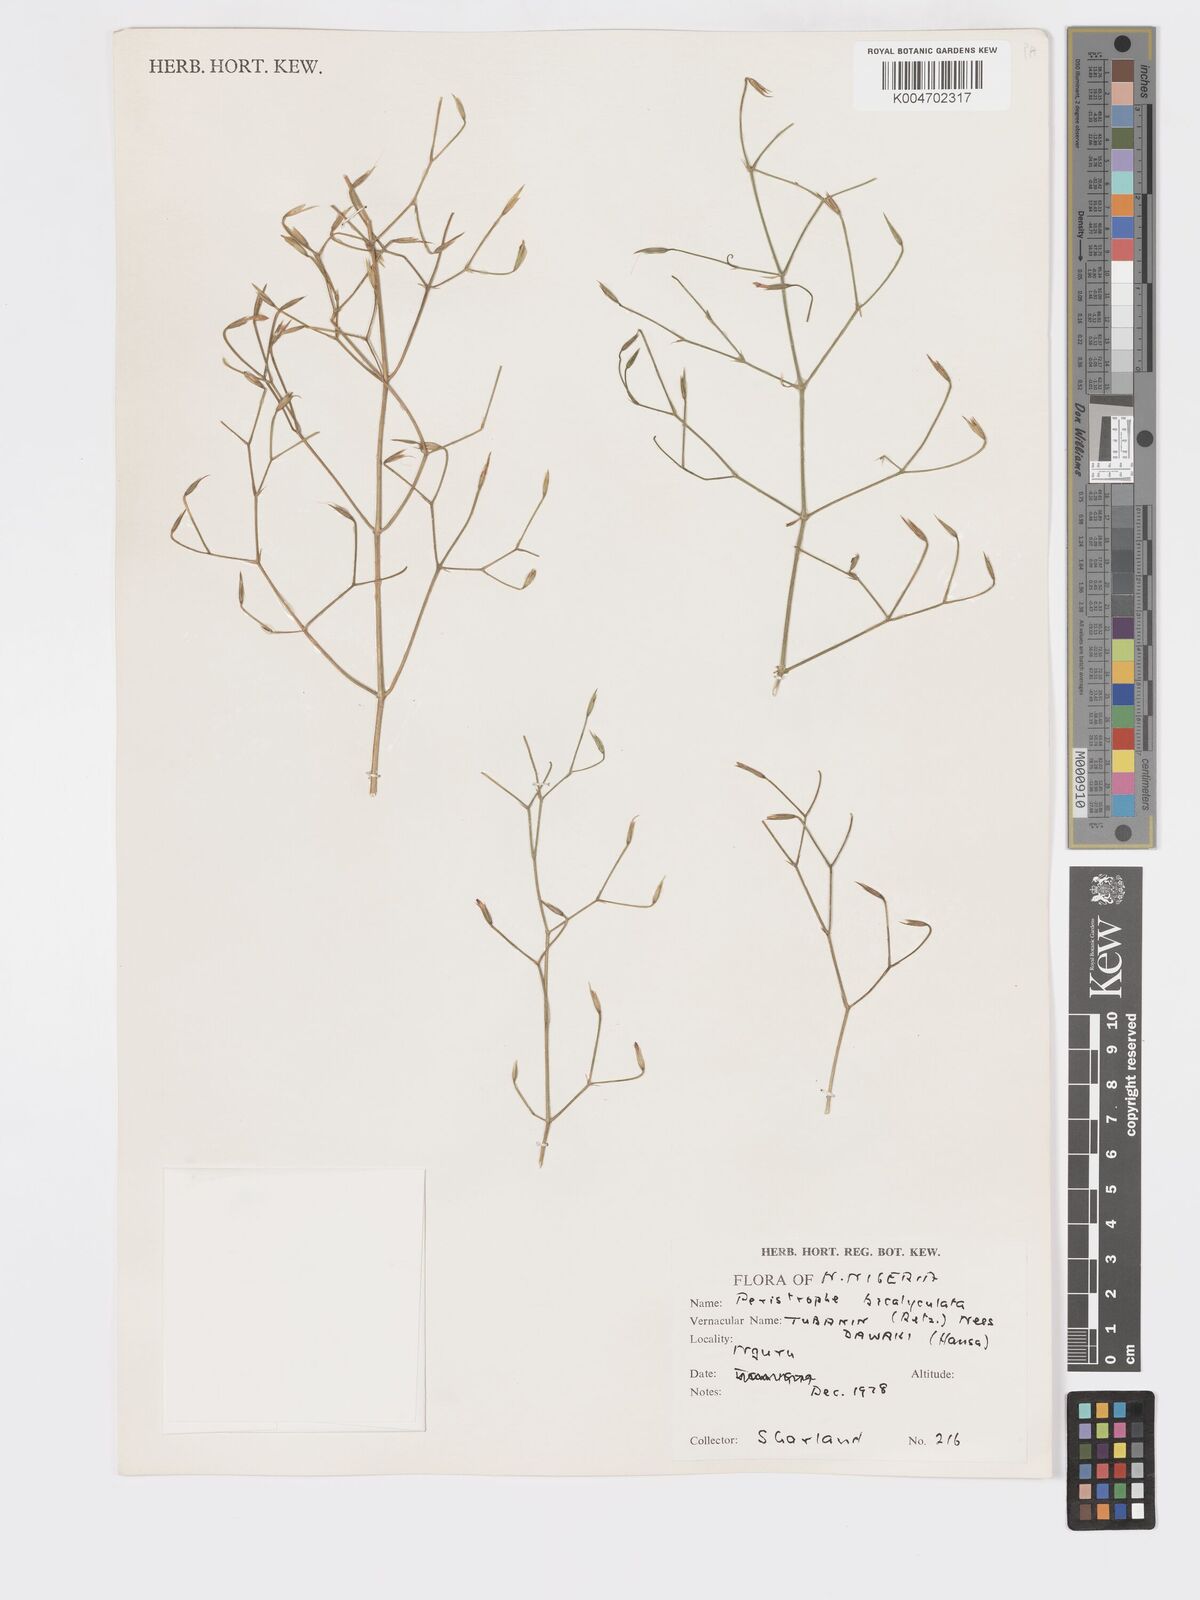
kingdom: Plantae
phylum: Tracheophyta
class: Magnoliopsida
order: Lamiales
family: Acanthaceae
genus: Dicliptera
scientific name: Dicliptera paniculata
